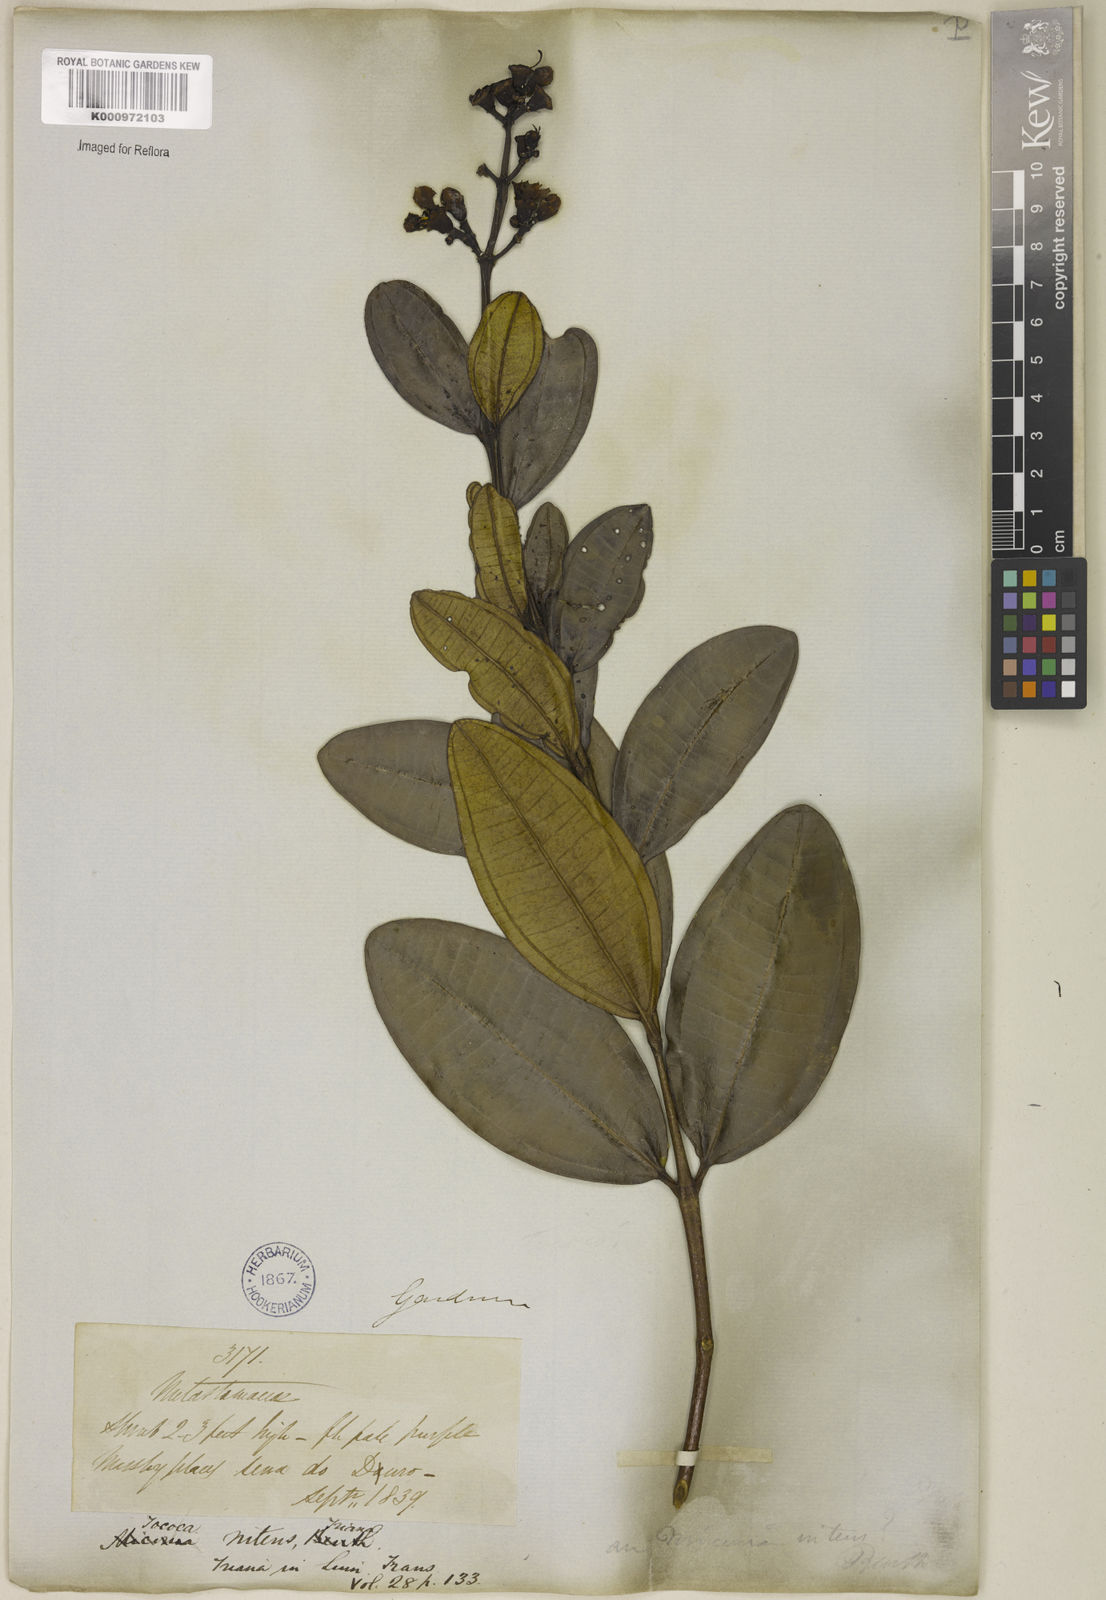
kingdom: Plantae
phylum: Tracheophyta
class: Magnoliopsida
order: Myrtales
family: Melastomataceae
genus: Miconia
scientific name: Miconia nitens
